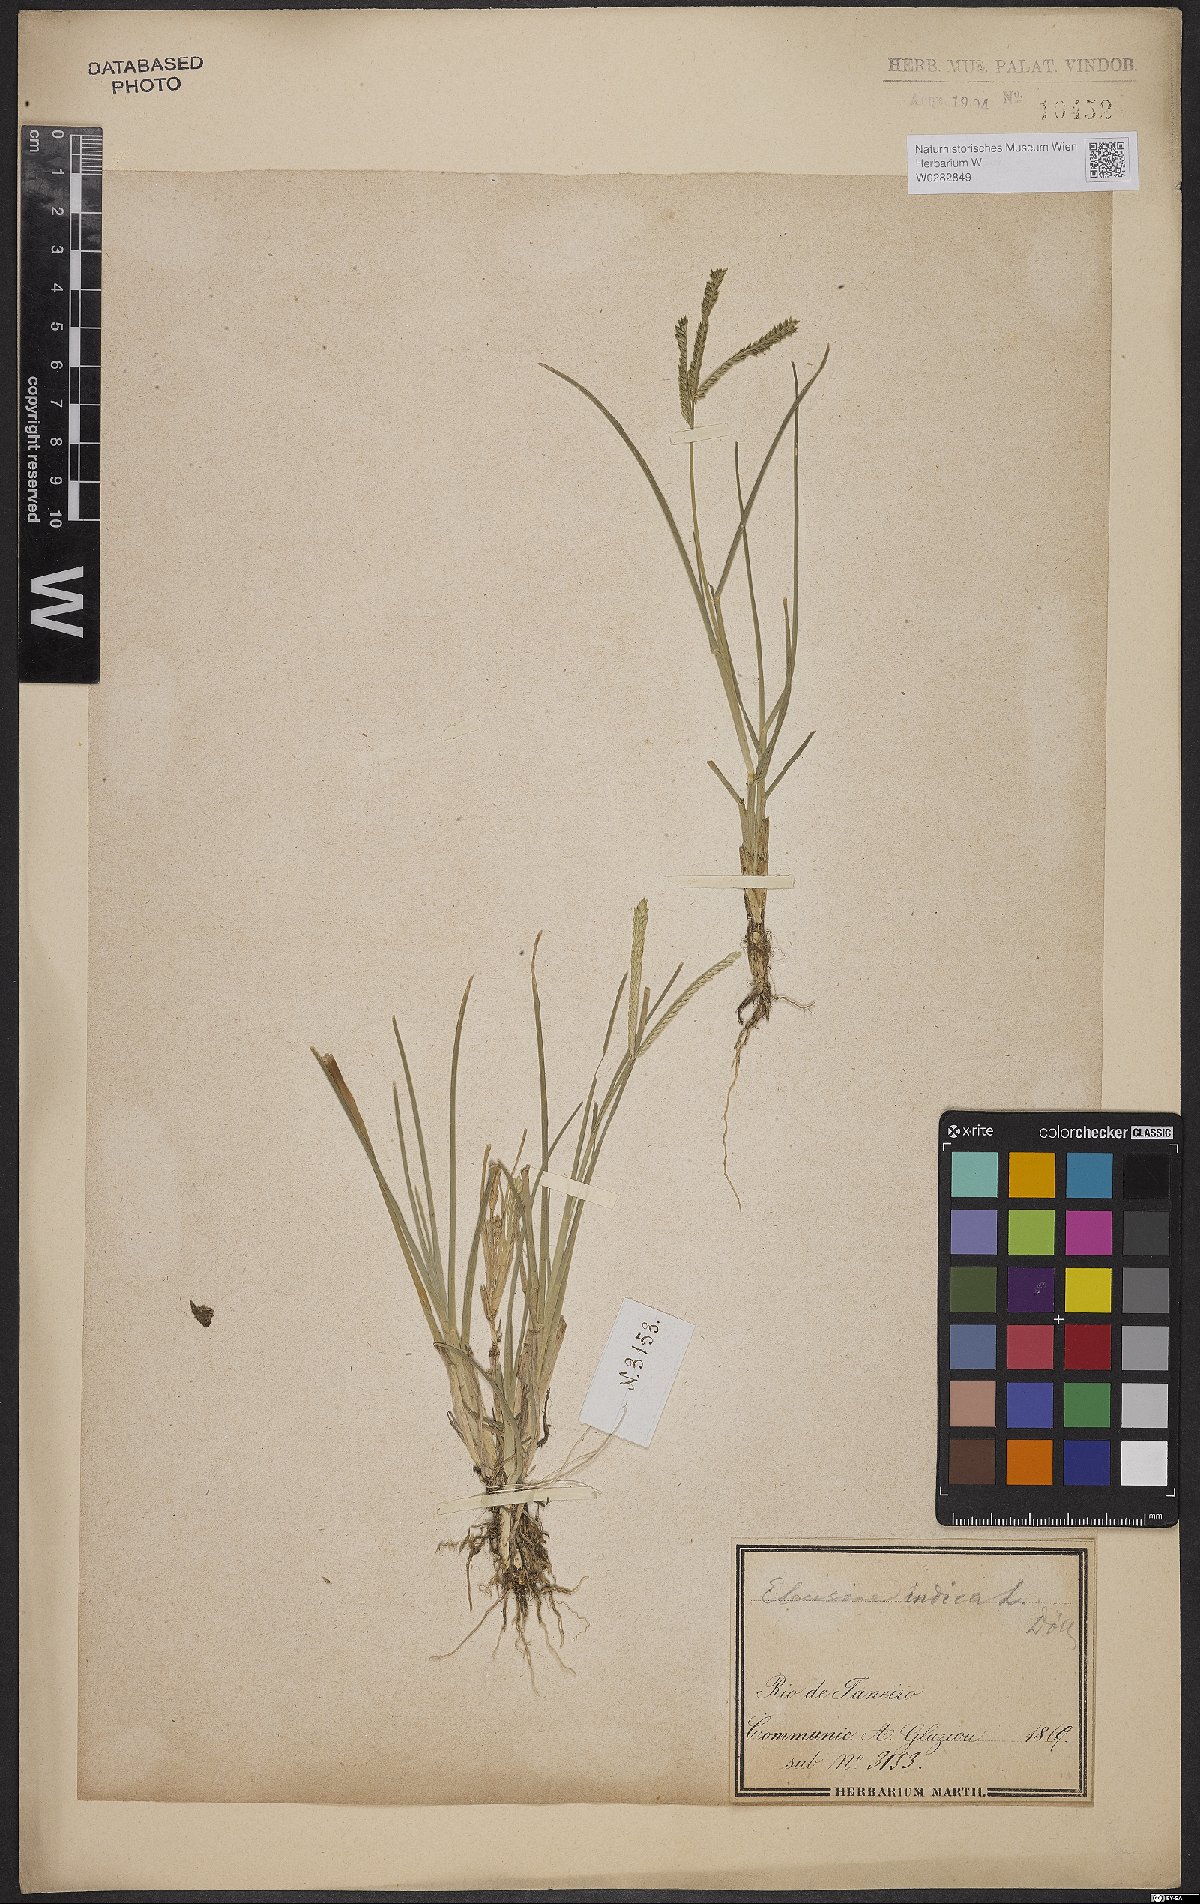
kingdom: Plantae
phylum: Tracheophyta
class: Liliopsida
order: Poales
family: Poaceae
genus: Eleusine
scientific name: Eleusine indica
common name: Yard-grass
